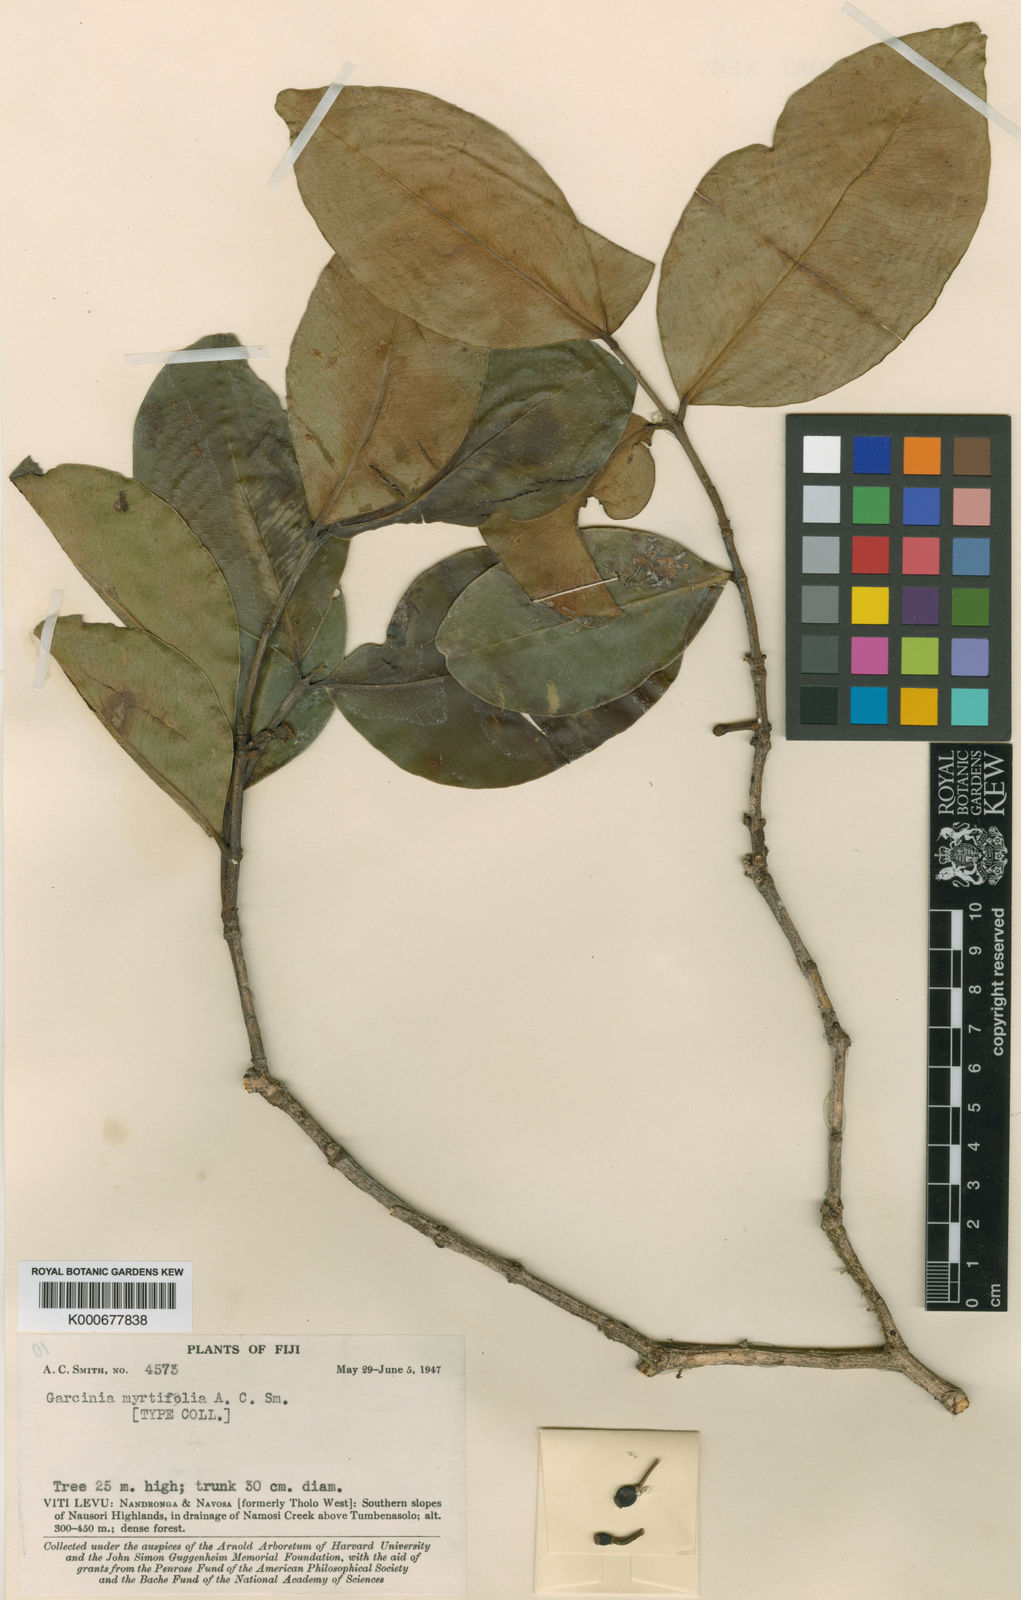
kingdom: Plantae
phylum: Tracheophyta
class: Magnoliopsida
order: Malpighiales
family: Clusiaceae
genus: Garcinia
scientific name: Garcinia myrtifolia
